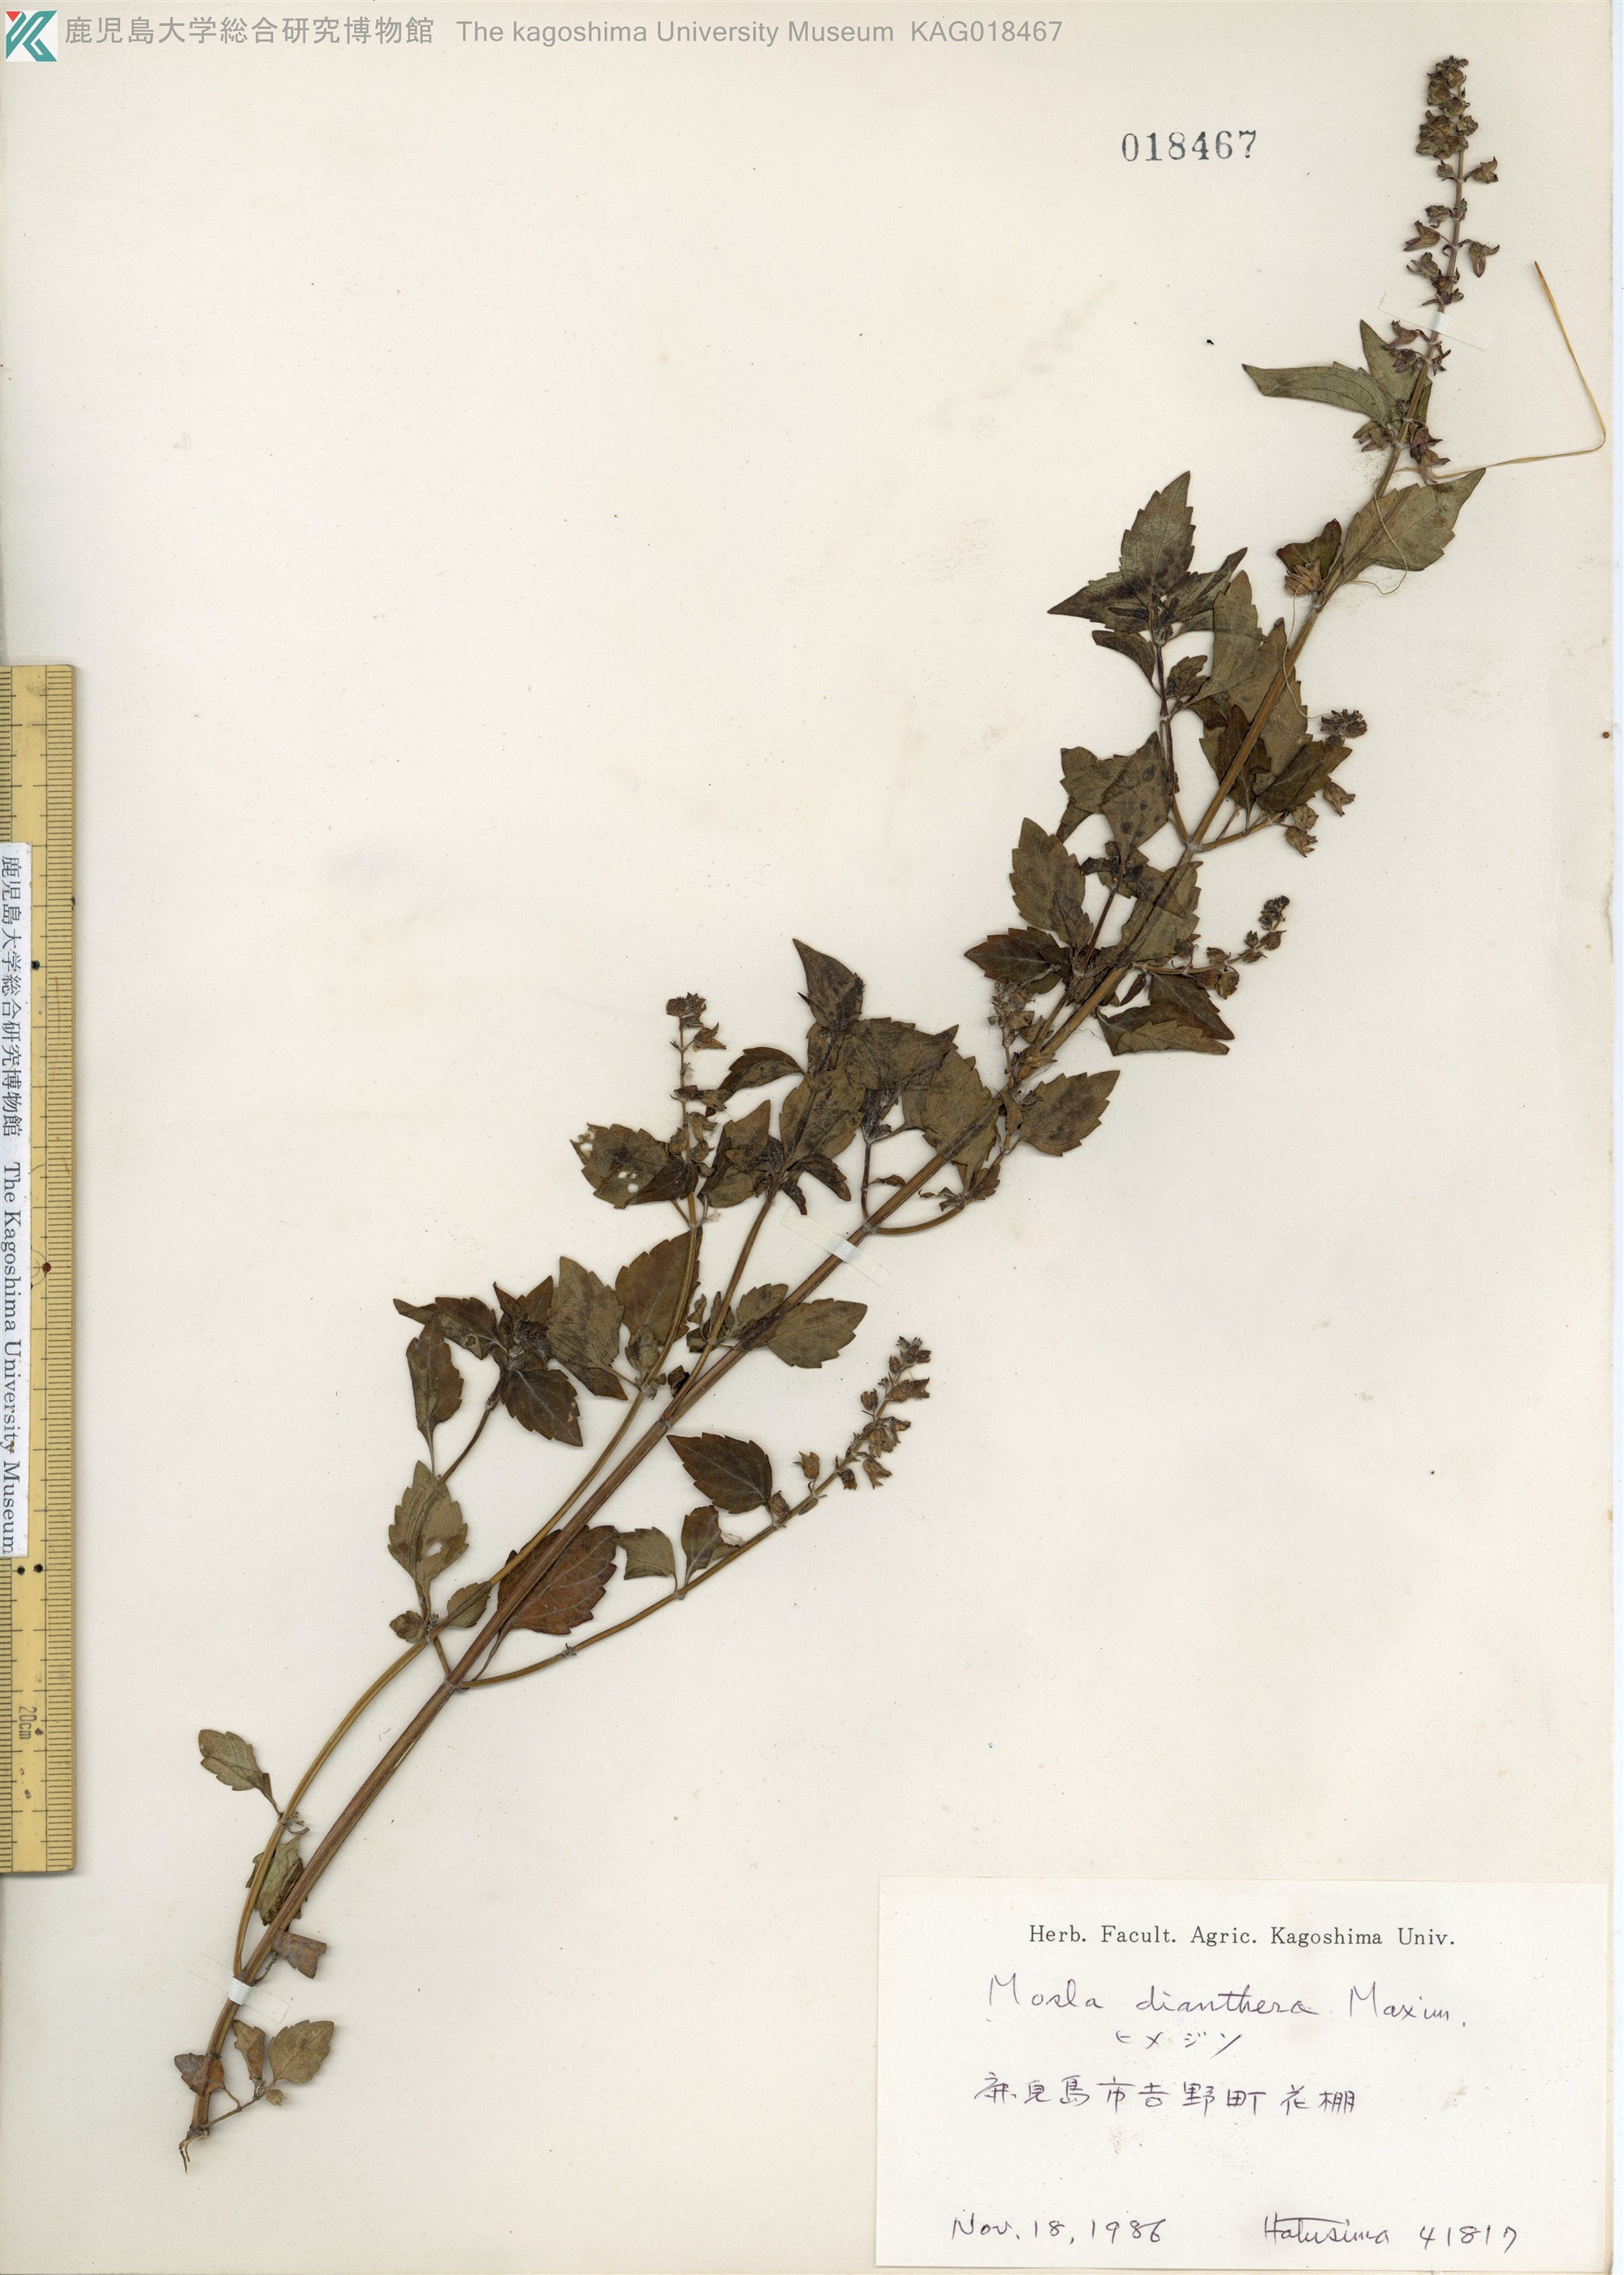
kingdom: Plantae
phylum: Tracheophyta
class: Magnoliopsida
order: Lamiales
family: Lamiaceae
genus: Mosla
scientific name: Mosla dianthera
